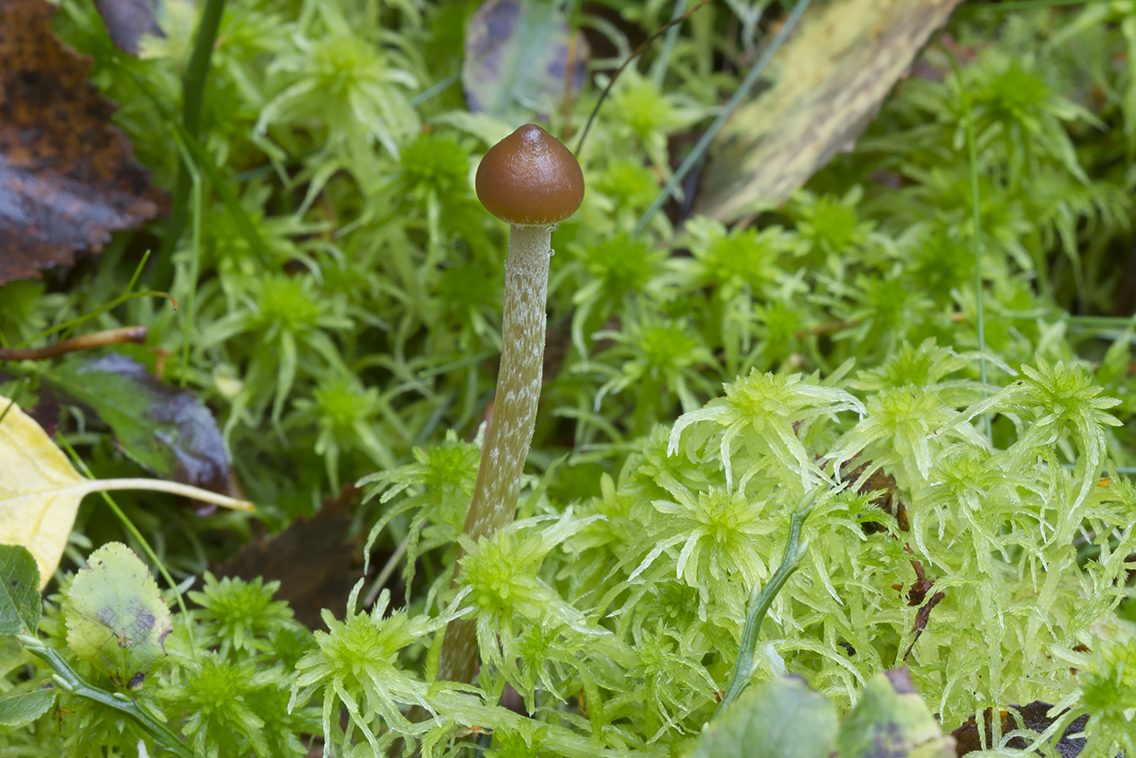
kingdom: Fungi
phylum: Basidiomycota
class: Agaricomycetes
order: Agaricales
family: Hymenogastraceae
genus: Psilocybe
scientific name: Psilocybe fuscofulva
